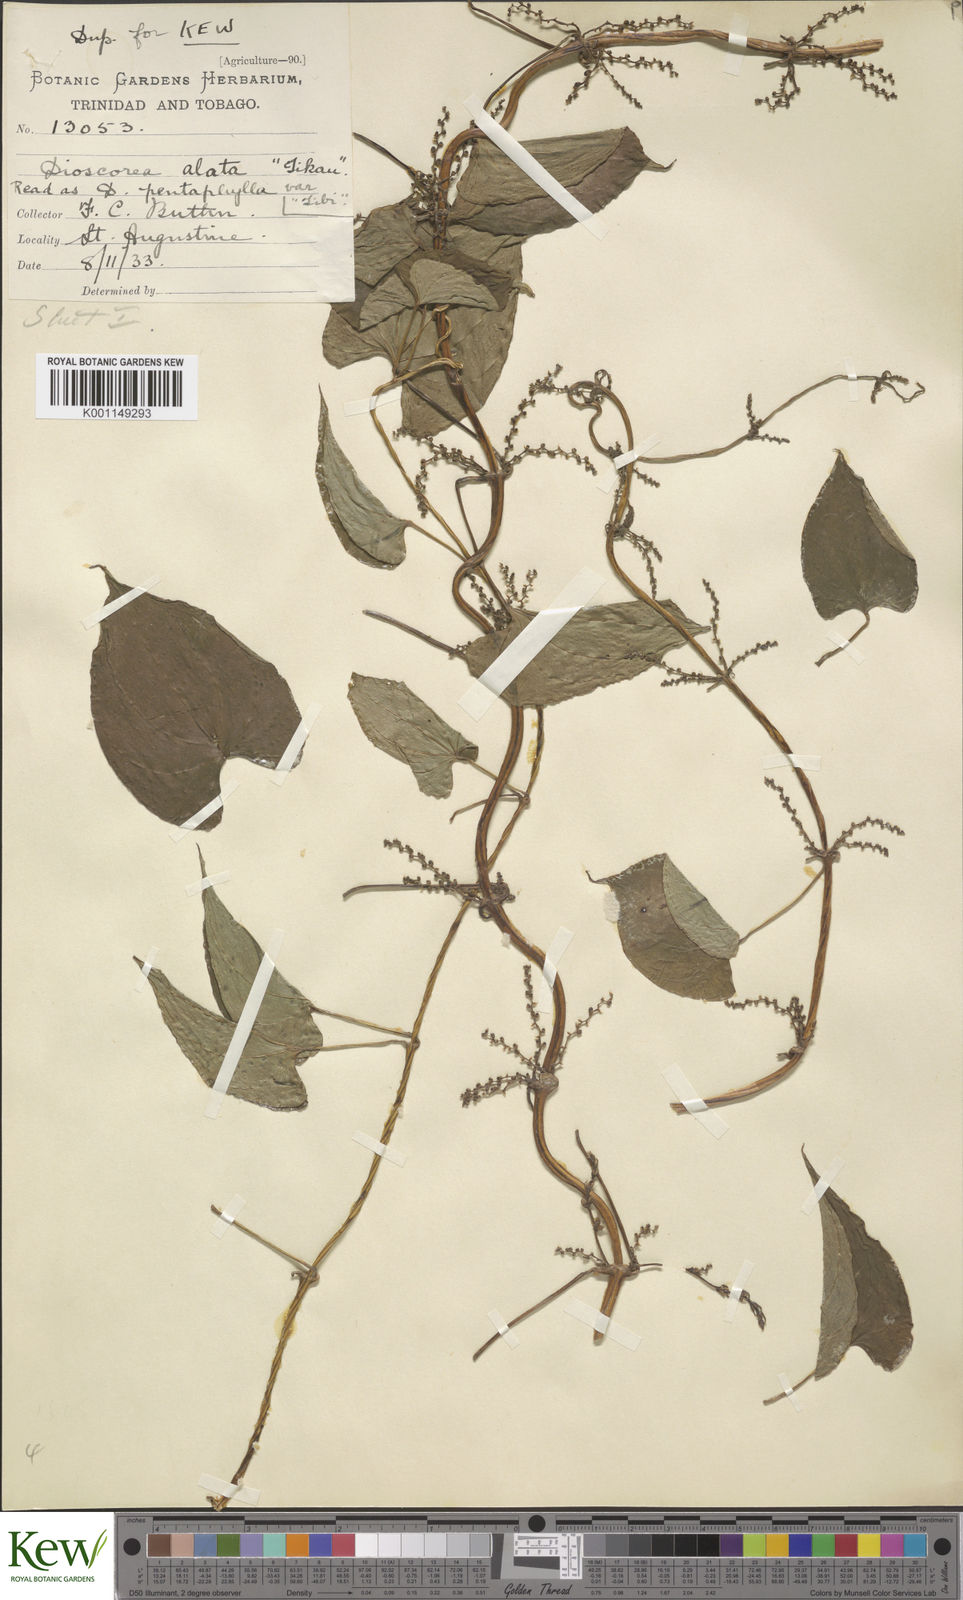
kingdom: Plantae
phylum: Tracheophyta
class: Liliopsida
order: Dioscoreales
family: Dioscoreaceae
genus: Dioscorea
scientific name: Dioscorea alata
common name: Water yam
